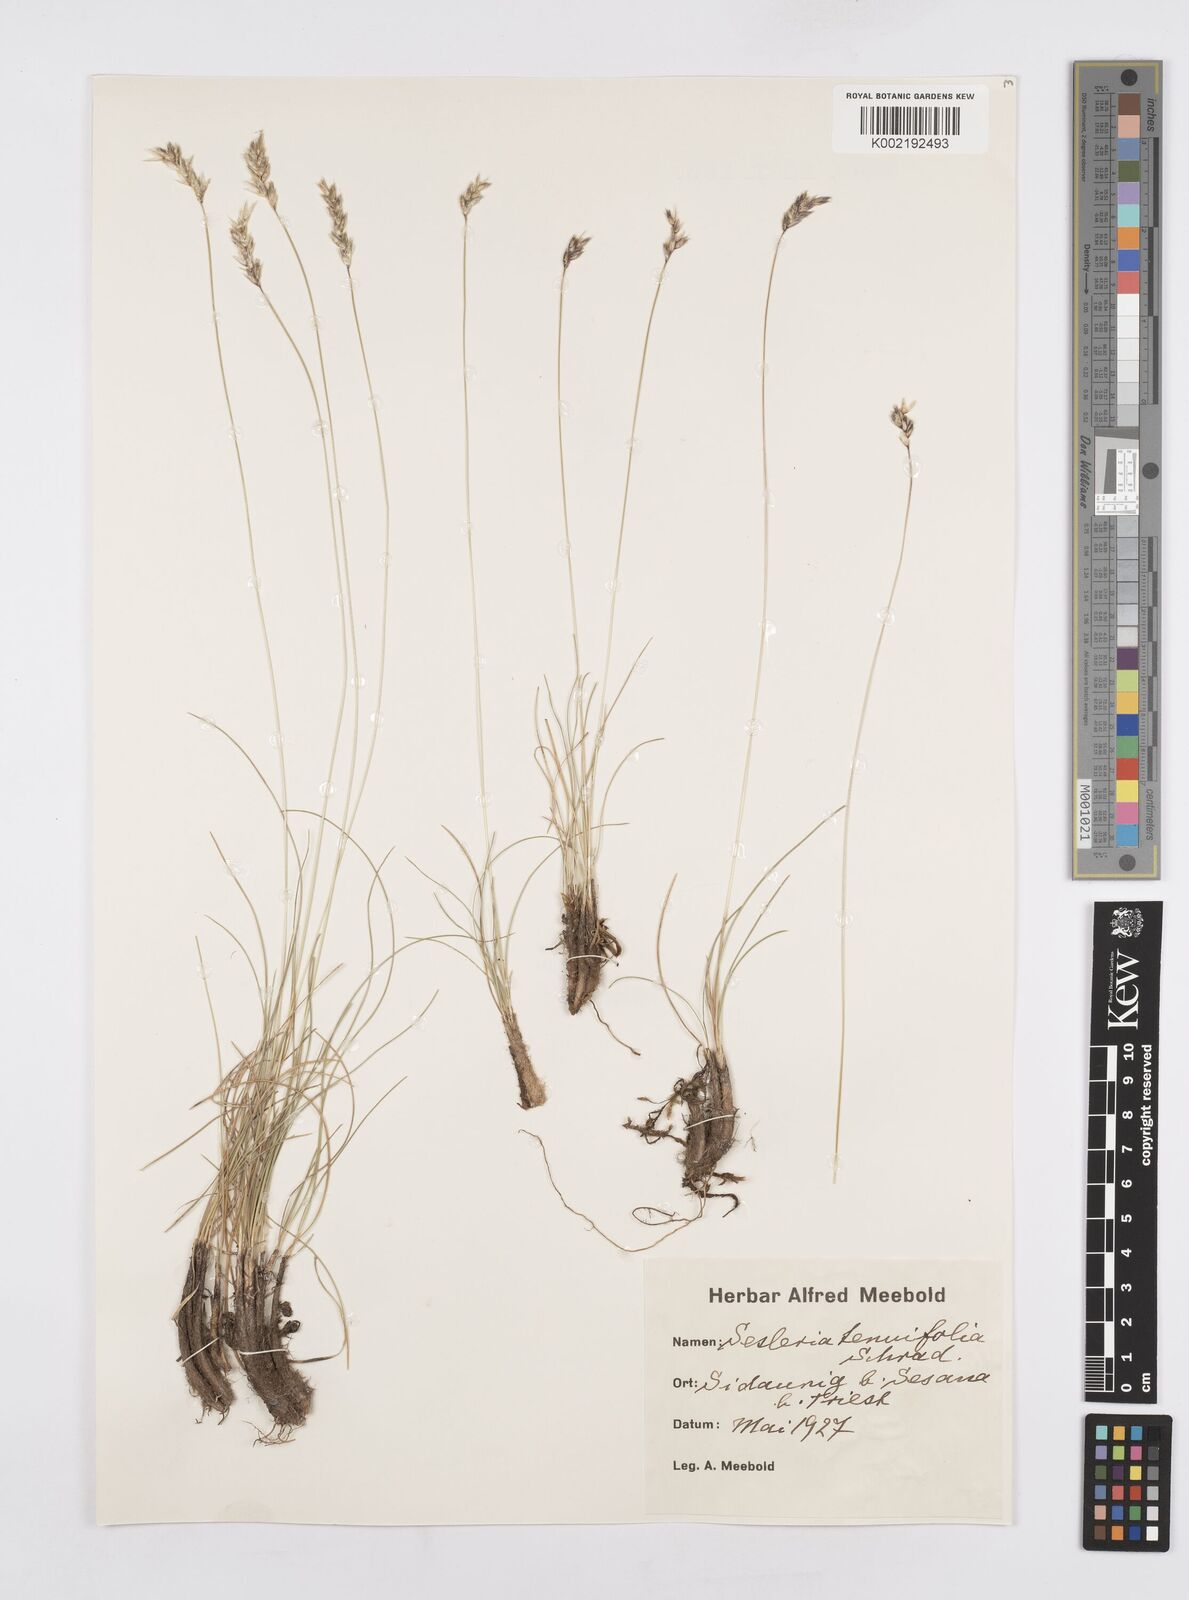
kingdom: Plantae
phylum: Tracheophyta
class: Liliopsida
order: Poales
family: Poaceae
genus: Sesleria
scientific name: Sesleria juncifolia
